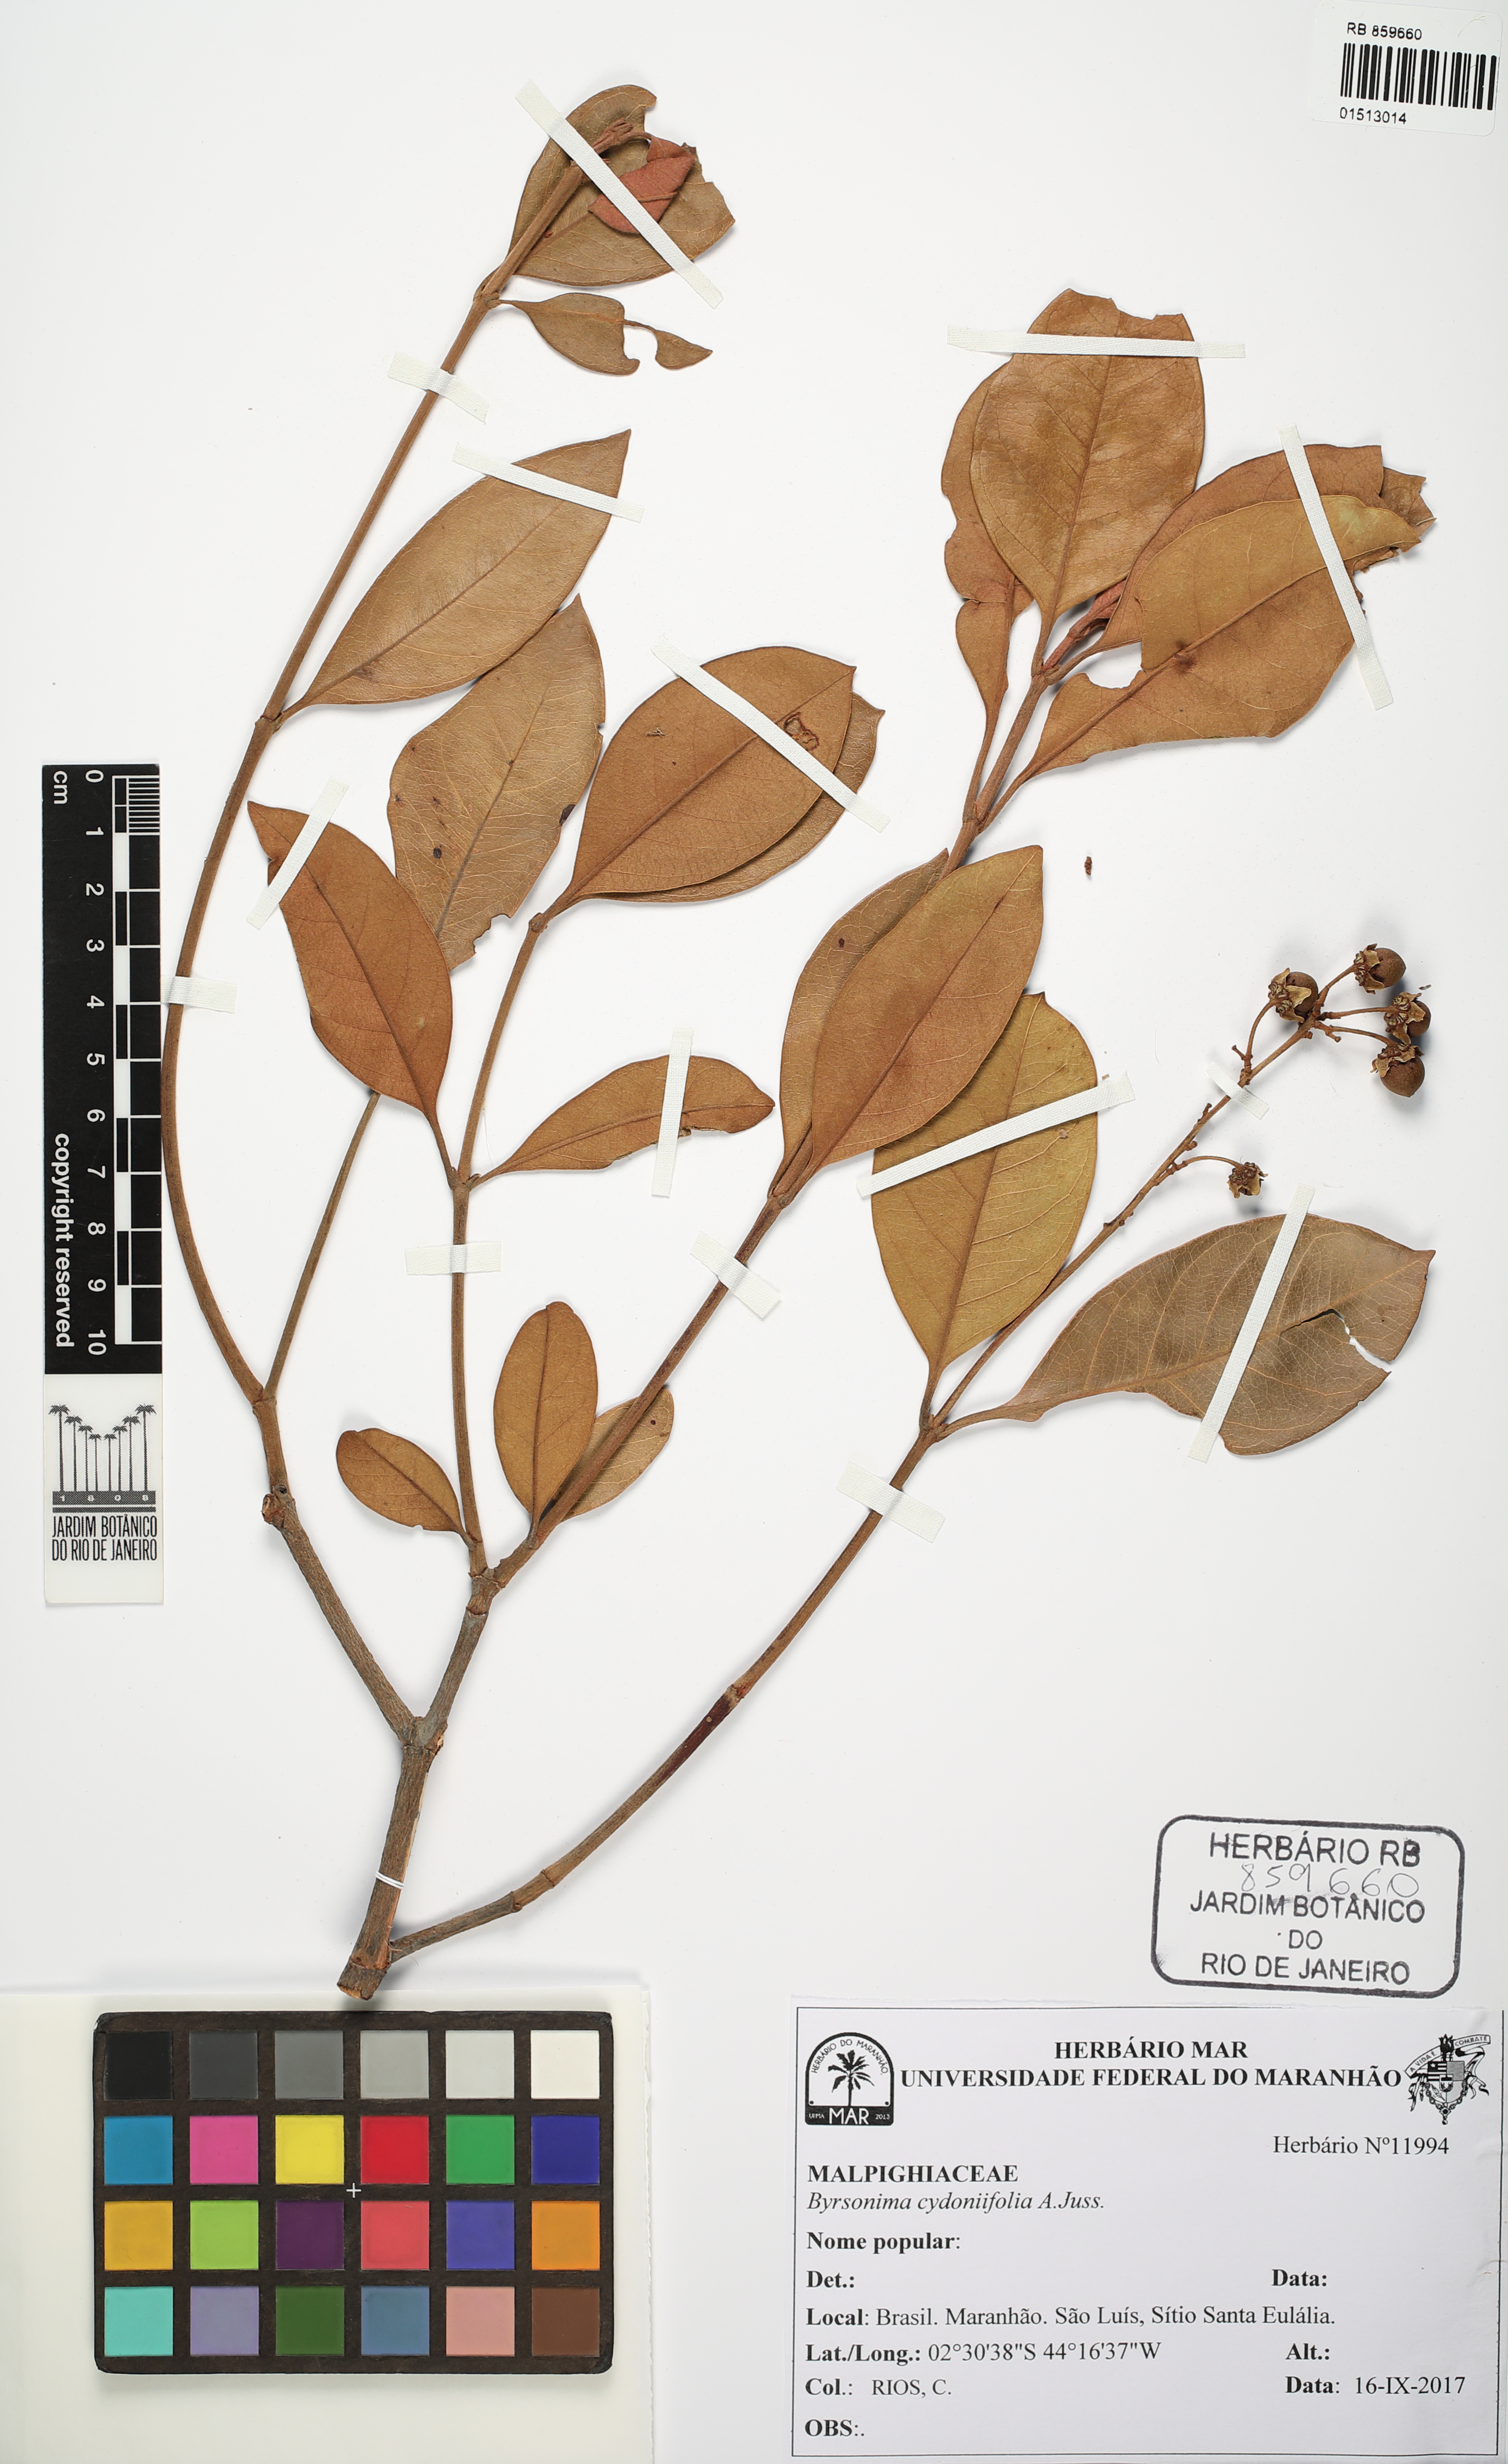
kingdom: Plantae
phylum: Tracheophyta
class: Magnoliopsida
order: Malpighiales
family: Malpighiaceae
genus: Byrsonima
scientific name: Byrsonima cydoniifolia
